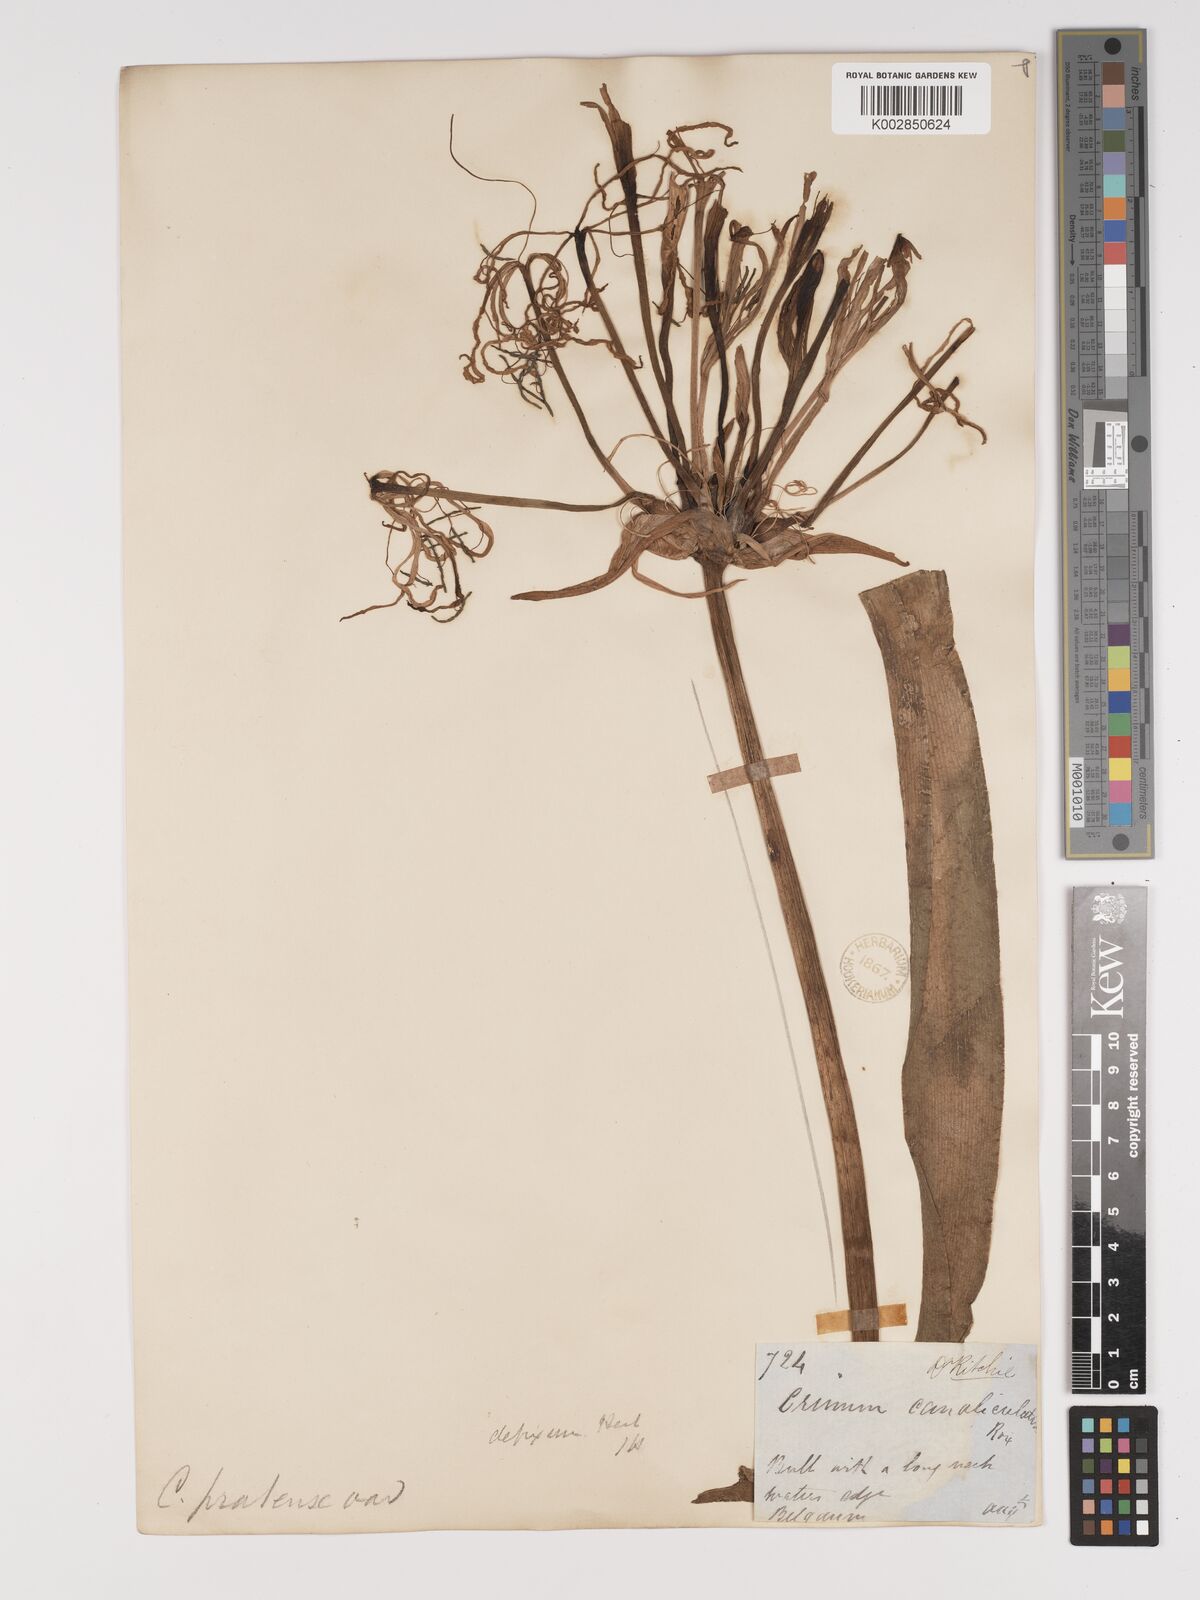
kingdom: Plantae
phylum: Tracheophyta
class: Liliopsida
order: Asparagales
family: Amaryllidaceae
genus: Crinum
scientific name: Crinum defixum
